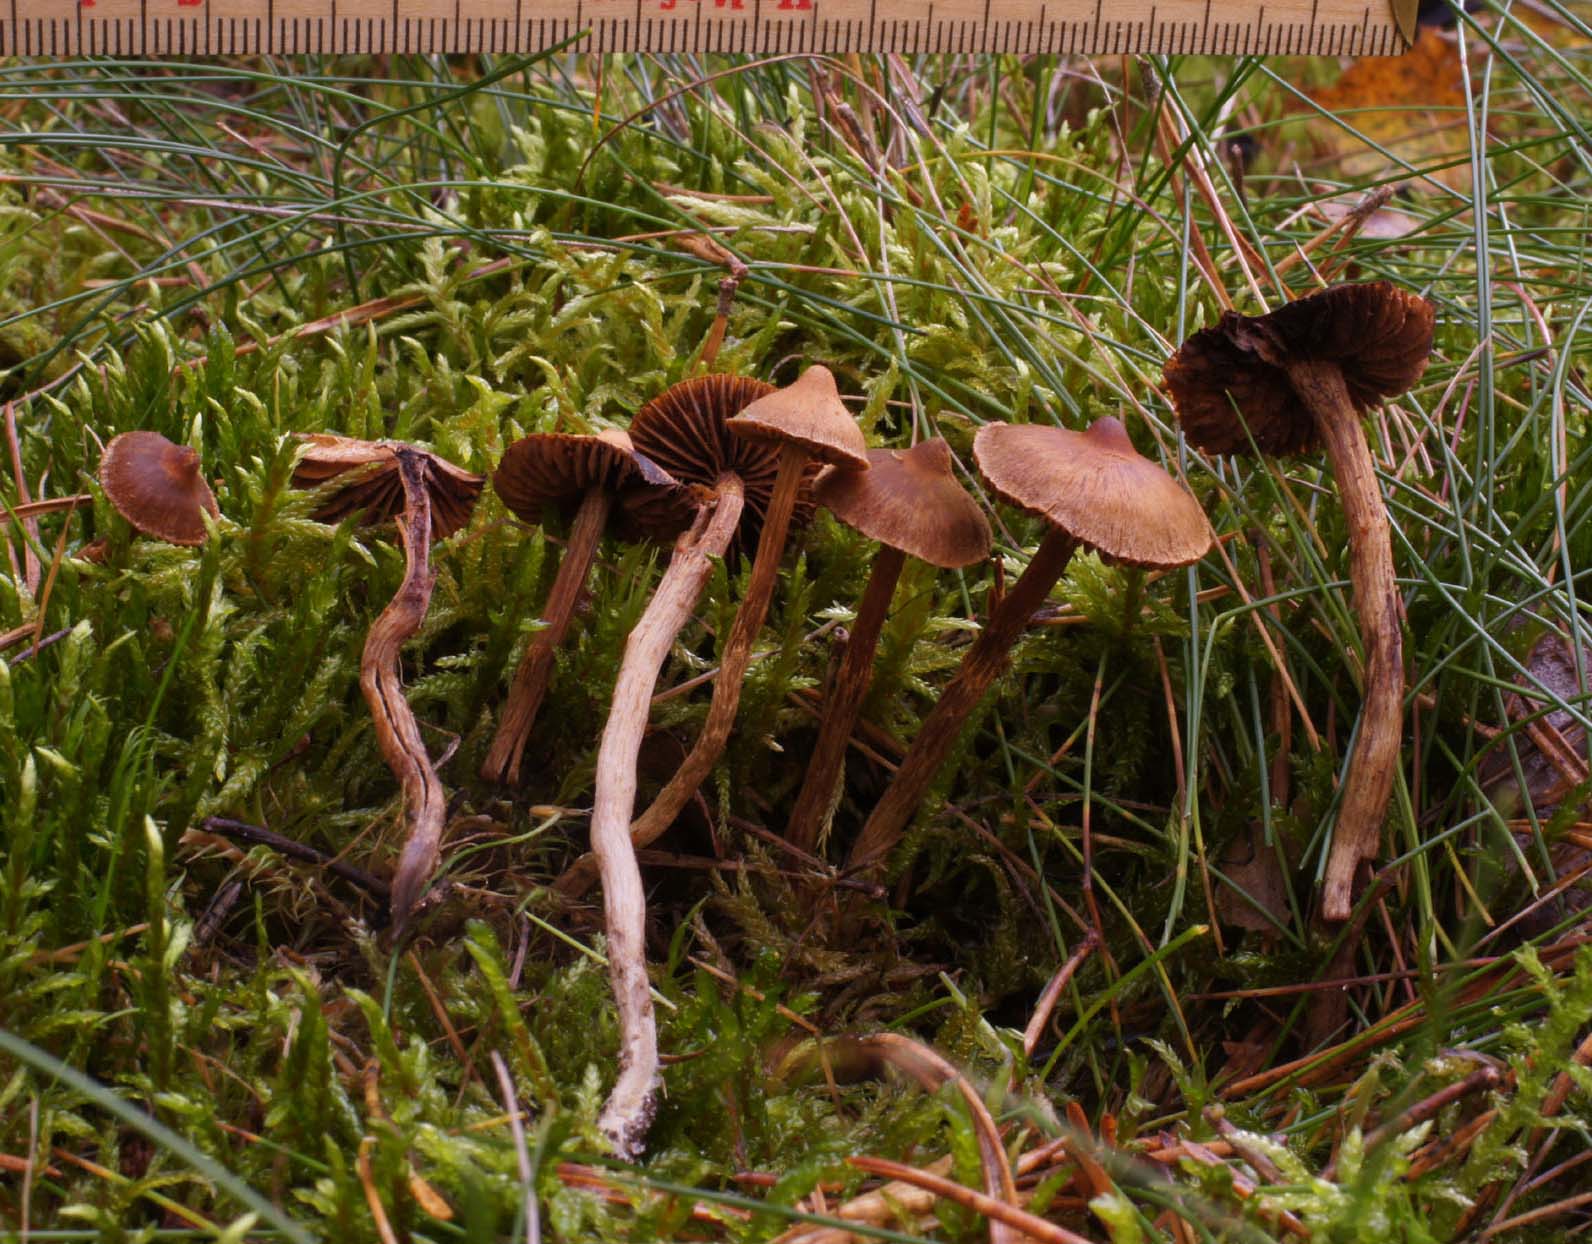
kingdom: Fungi
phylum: Basidiomycota
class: Agaricomycetes
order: Agaricales
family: Cortinariaceae
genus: Cortinarius
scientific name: Cortinarius castaneopallidus
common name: bronzetrævlet slørhat
